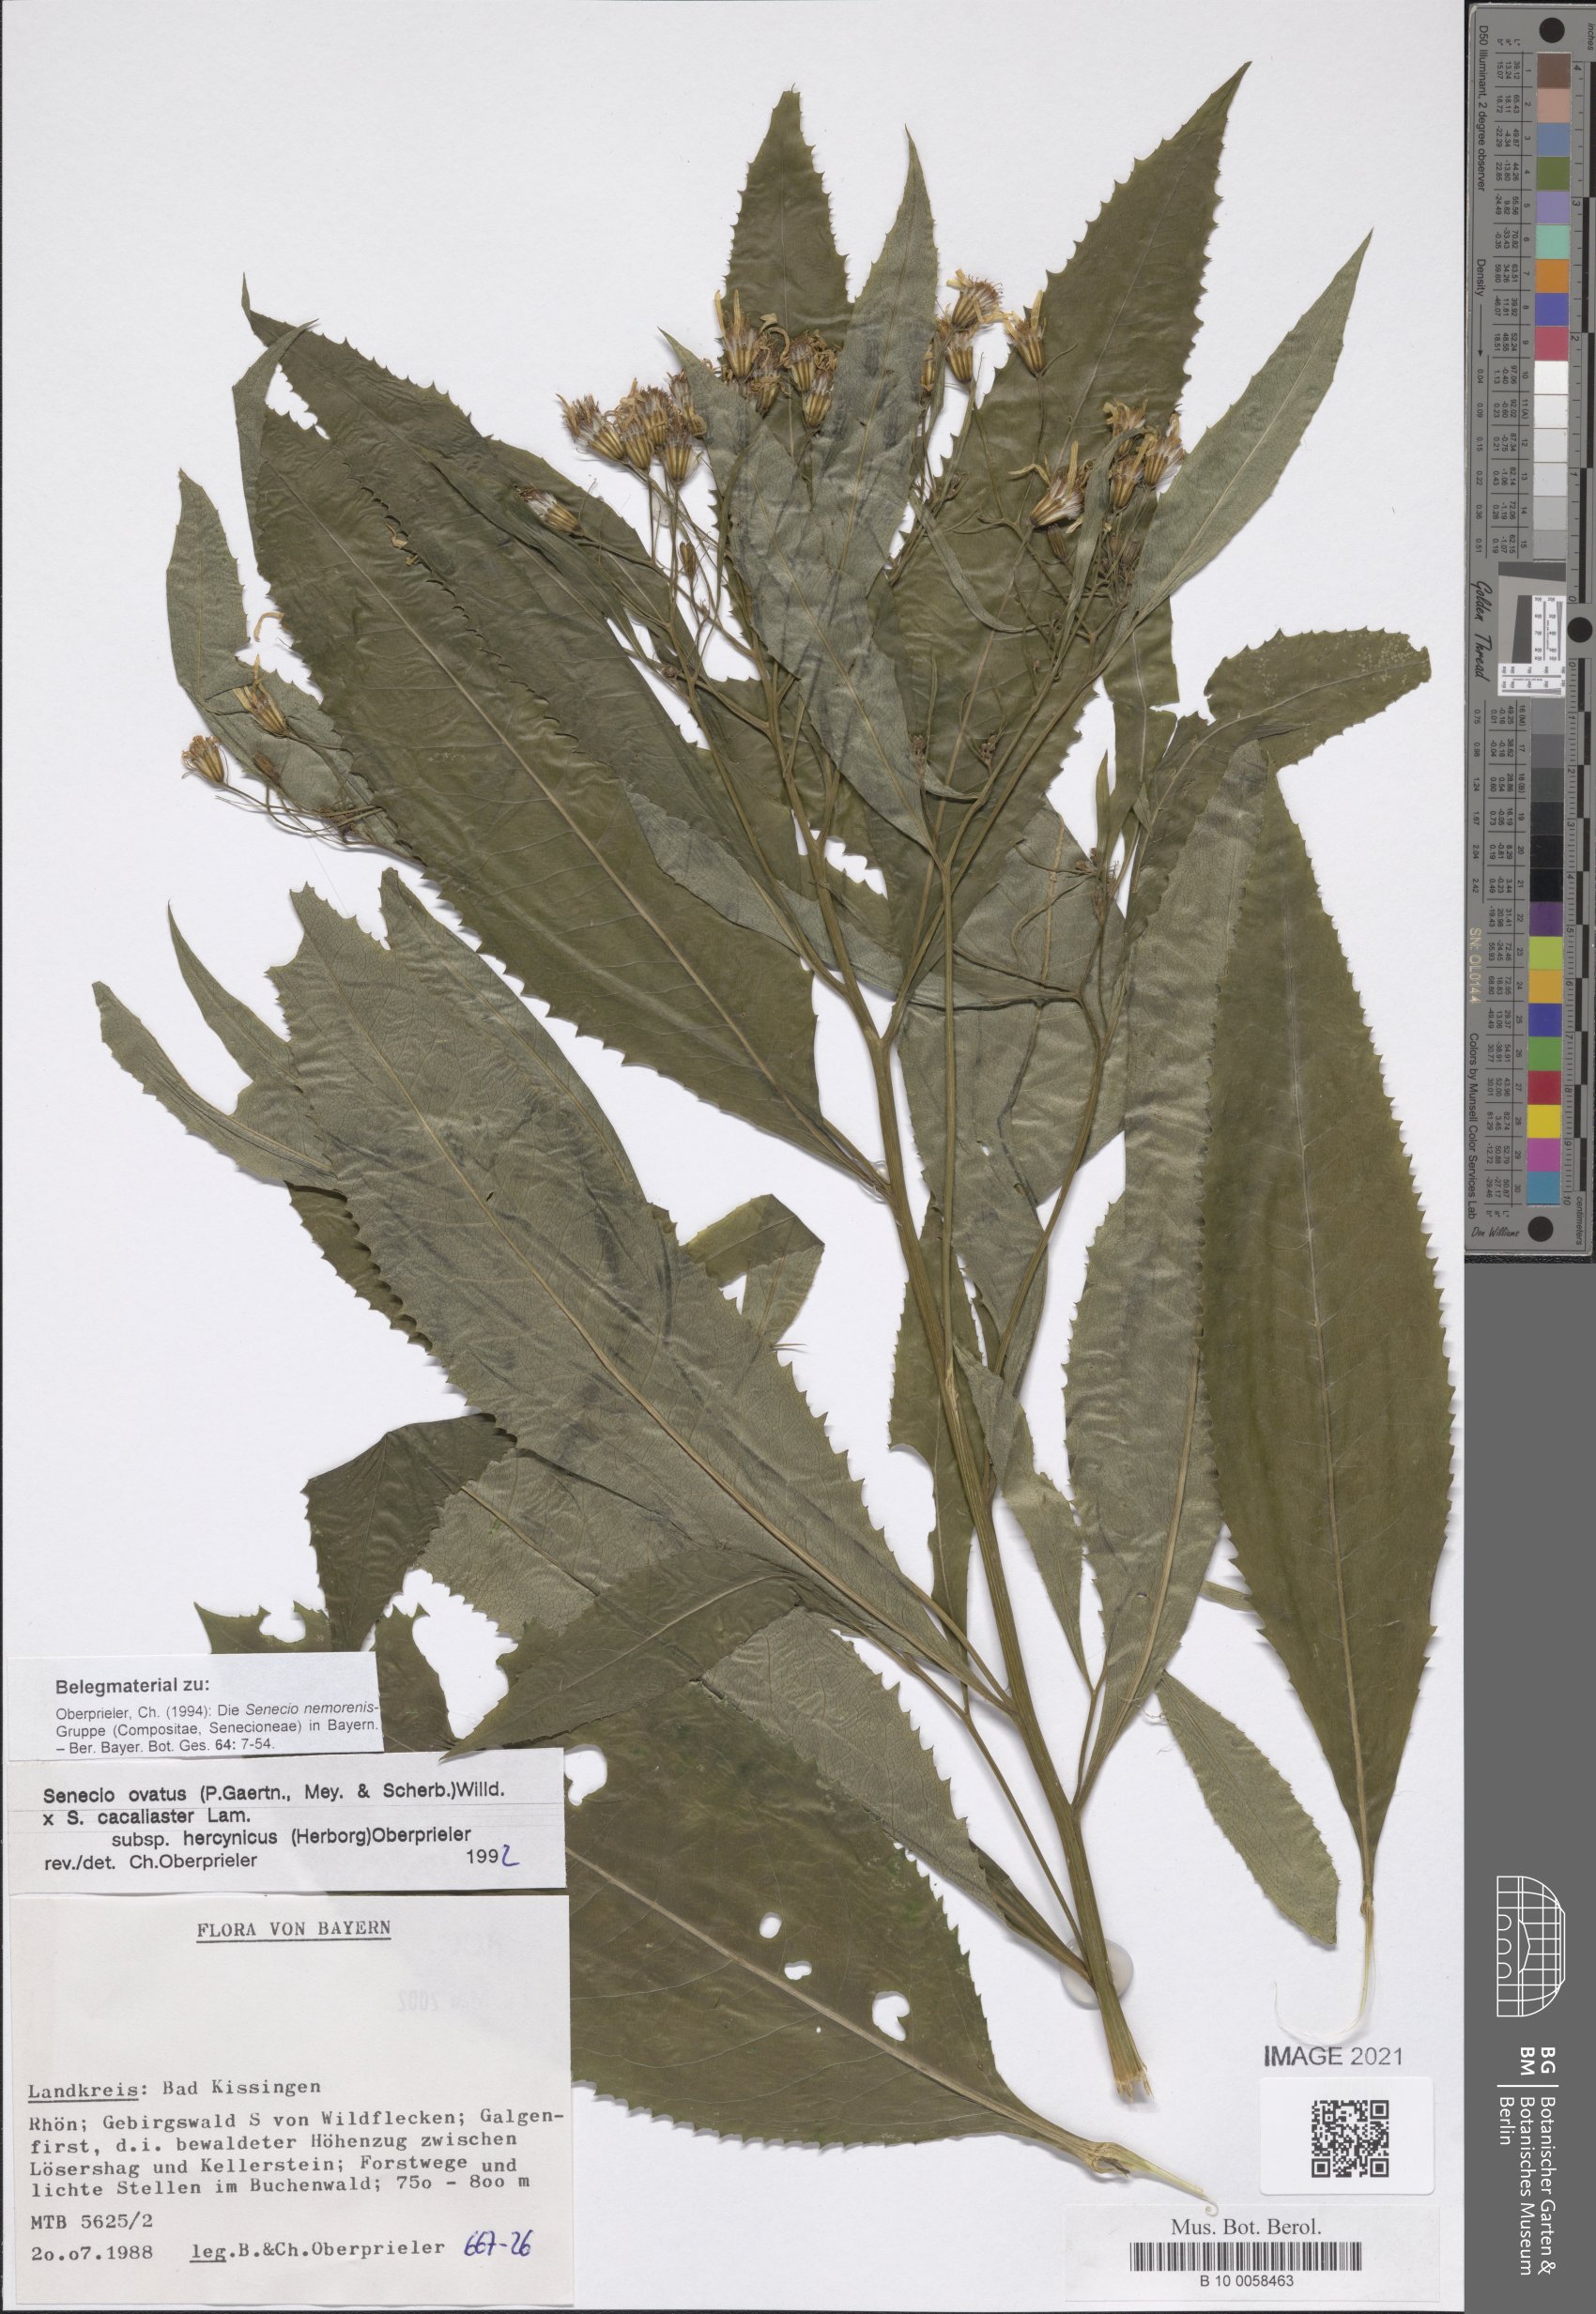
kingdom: Plantae
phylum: Tracheophyta
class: Magnoliopsida
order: Asterales
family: Asteraceae
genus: Senecio
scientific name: Senecio ovatus
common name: Wood ragwort
